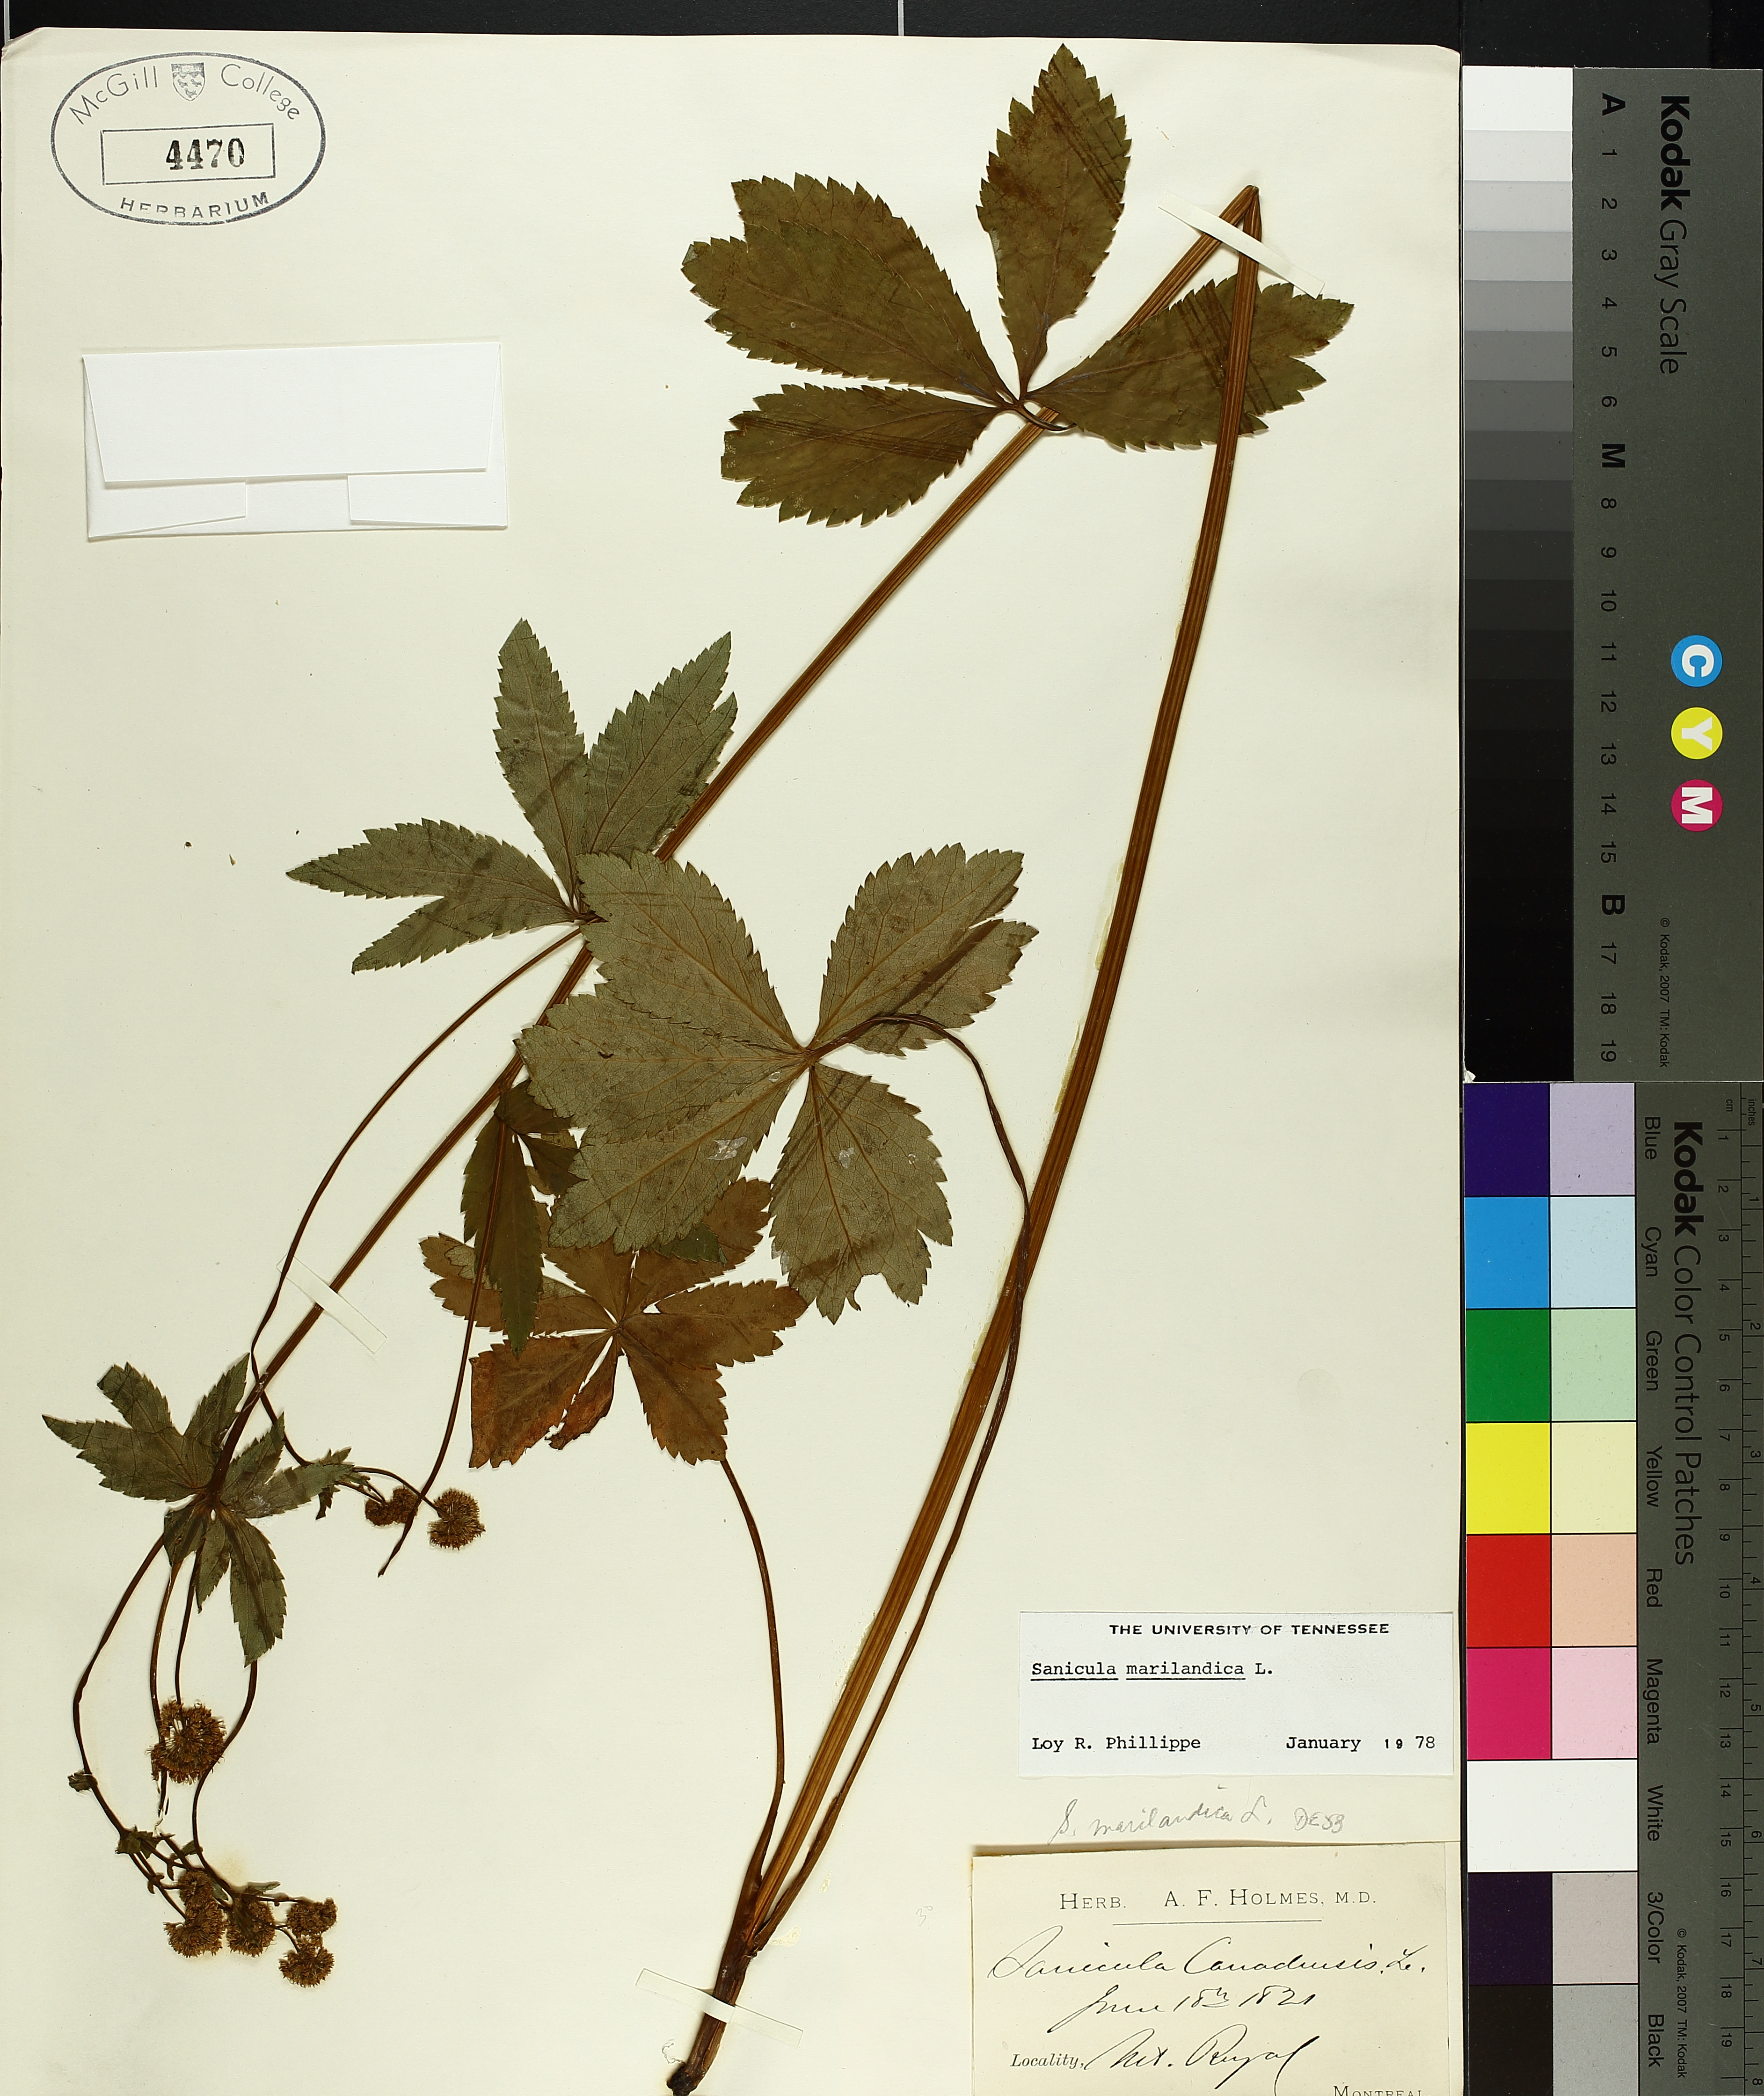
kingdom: Plantae
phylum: Tracheophyta
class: Magnoliopsida
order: Apiales
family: Apiaceae
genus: Sanicula
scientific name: Sanicula marilandica
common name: Black snakeroot
